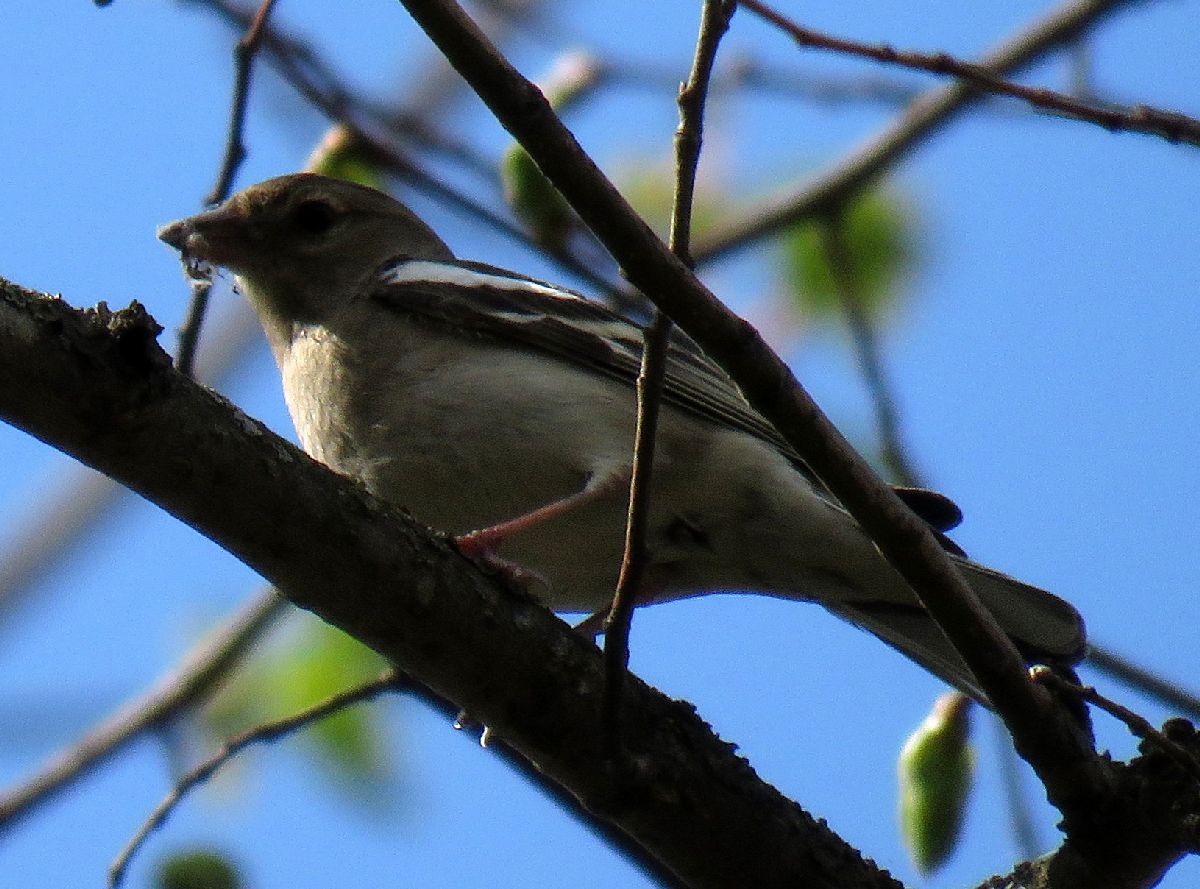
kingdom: Animalia
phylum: Chordata
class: Aves
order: Passeriformes
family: Fringillidae
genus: Fringilla
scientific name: Fringilla coelebs
